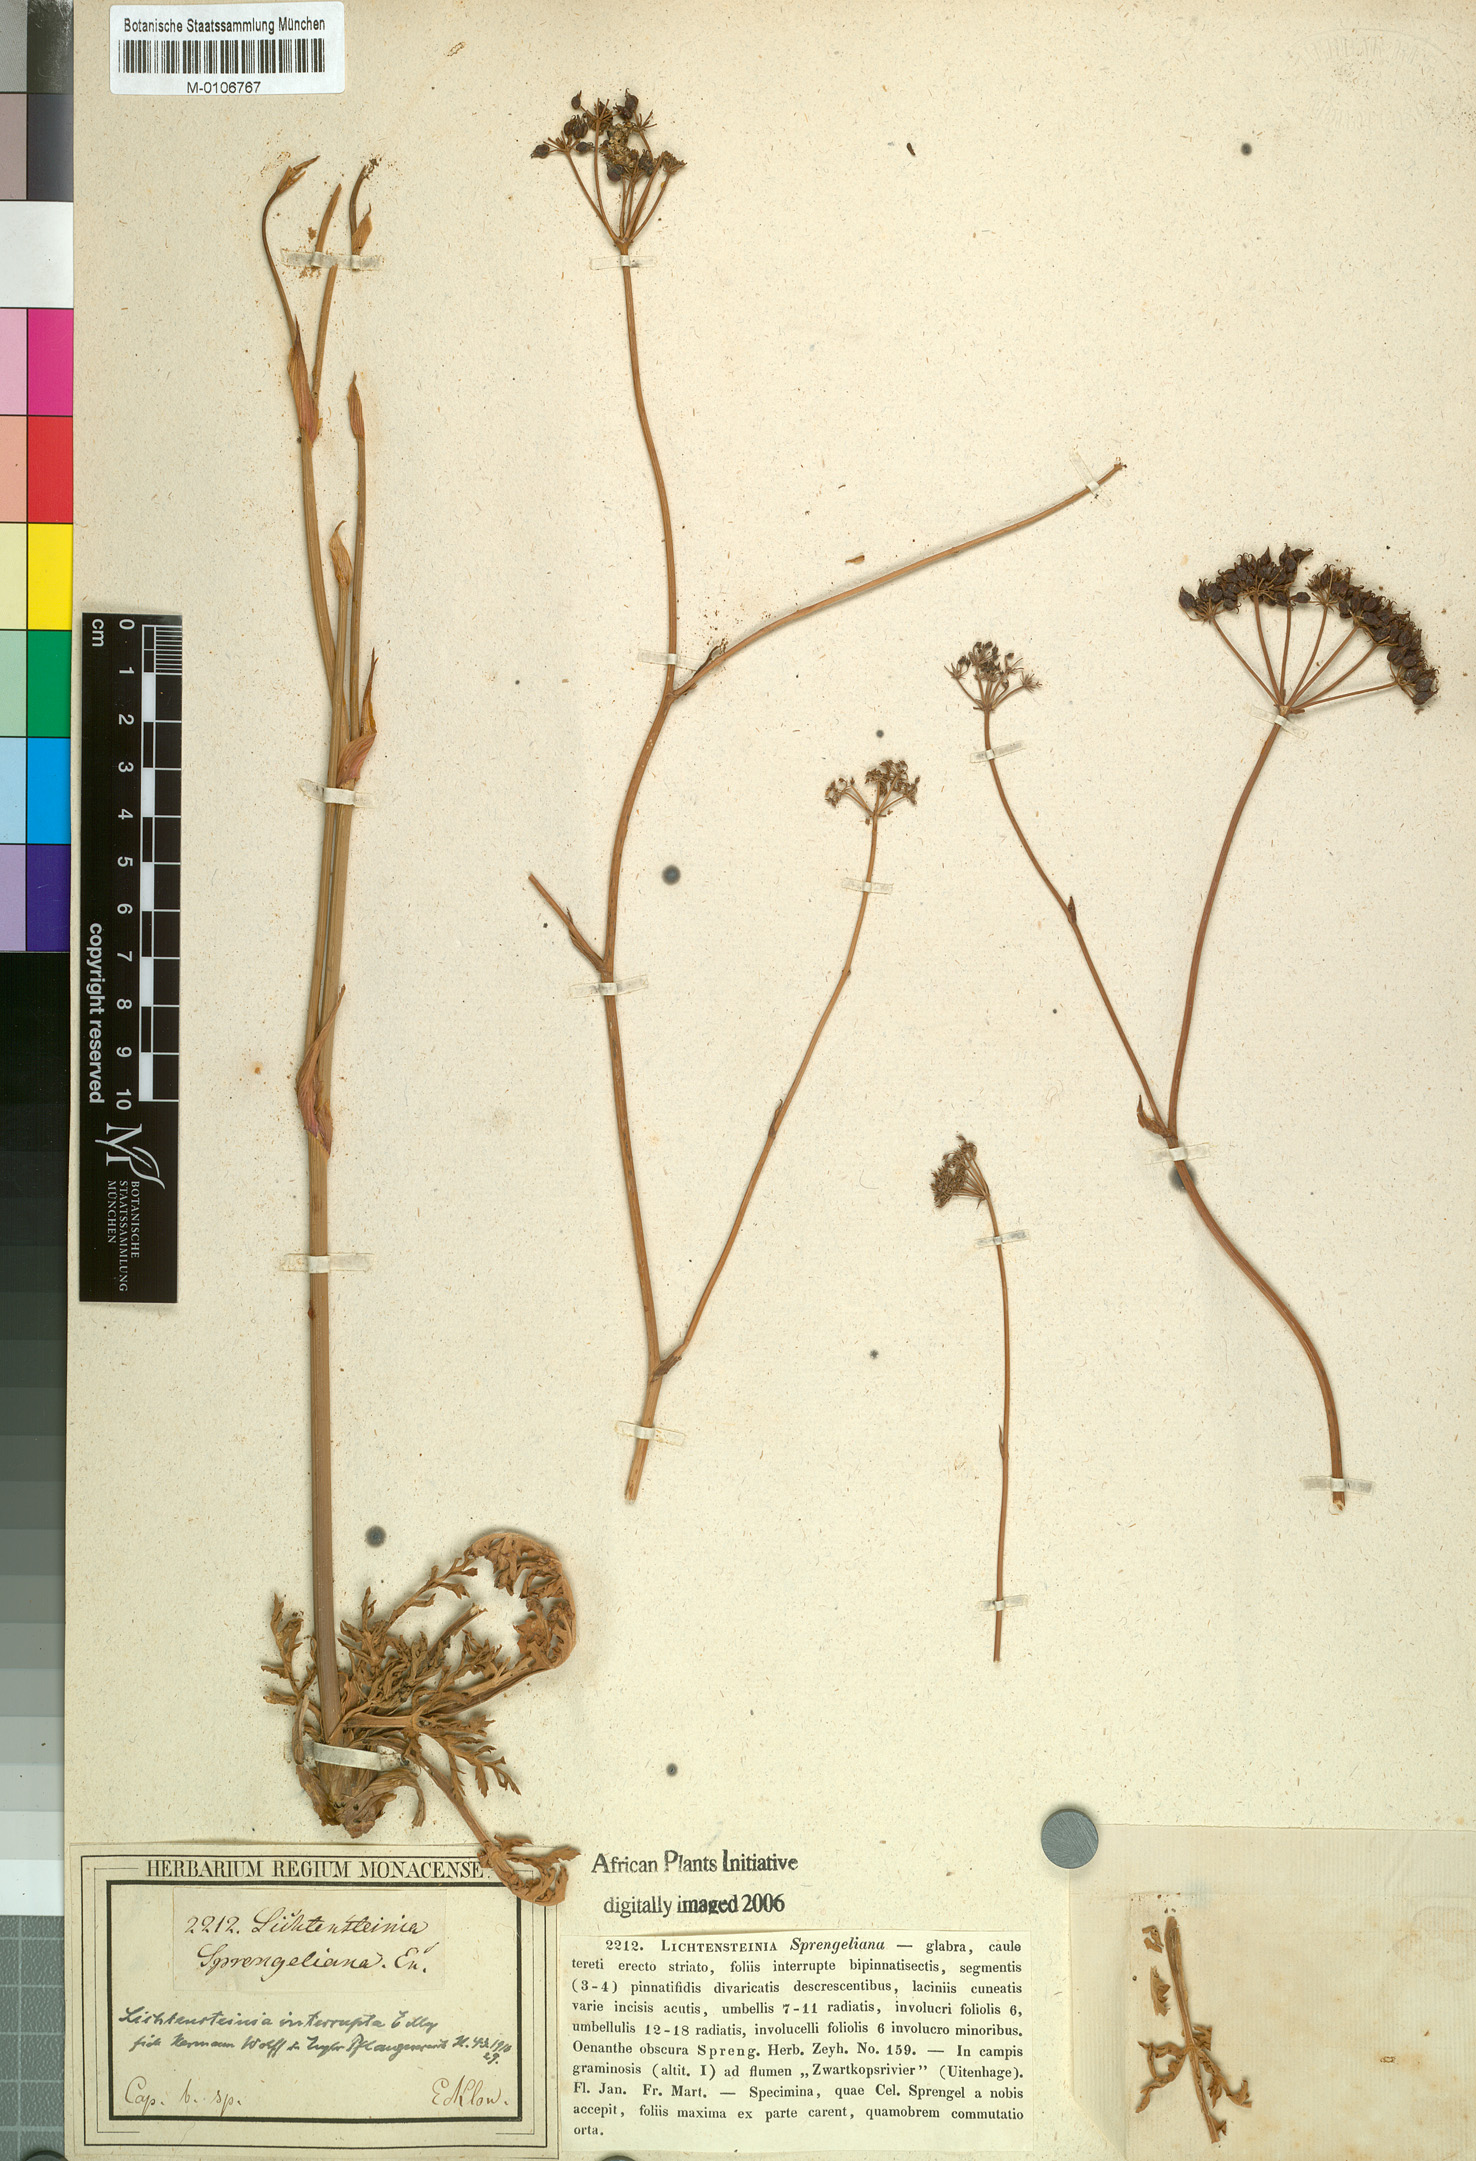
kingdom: Plantae
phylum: Tracheophyta
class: Magnoliopsida
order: Apiales
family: Apiaceae
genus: Lichtensteinia
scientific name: Lichtensteinia interrupta
